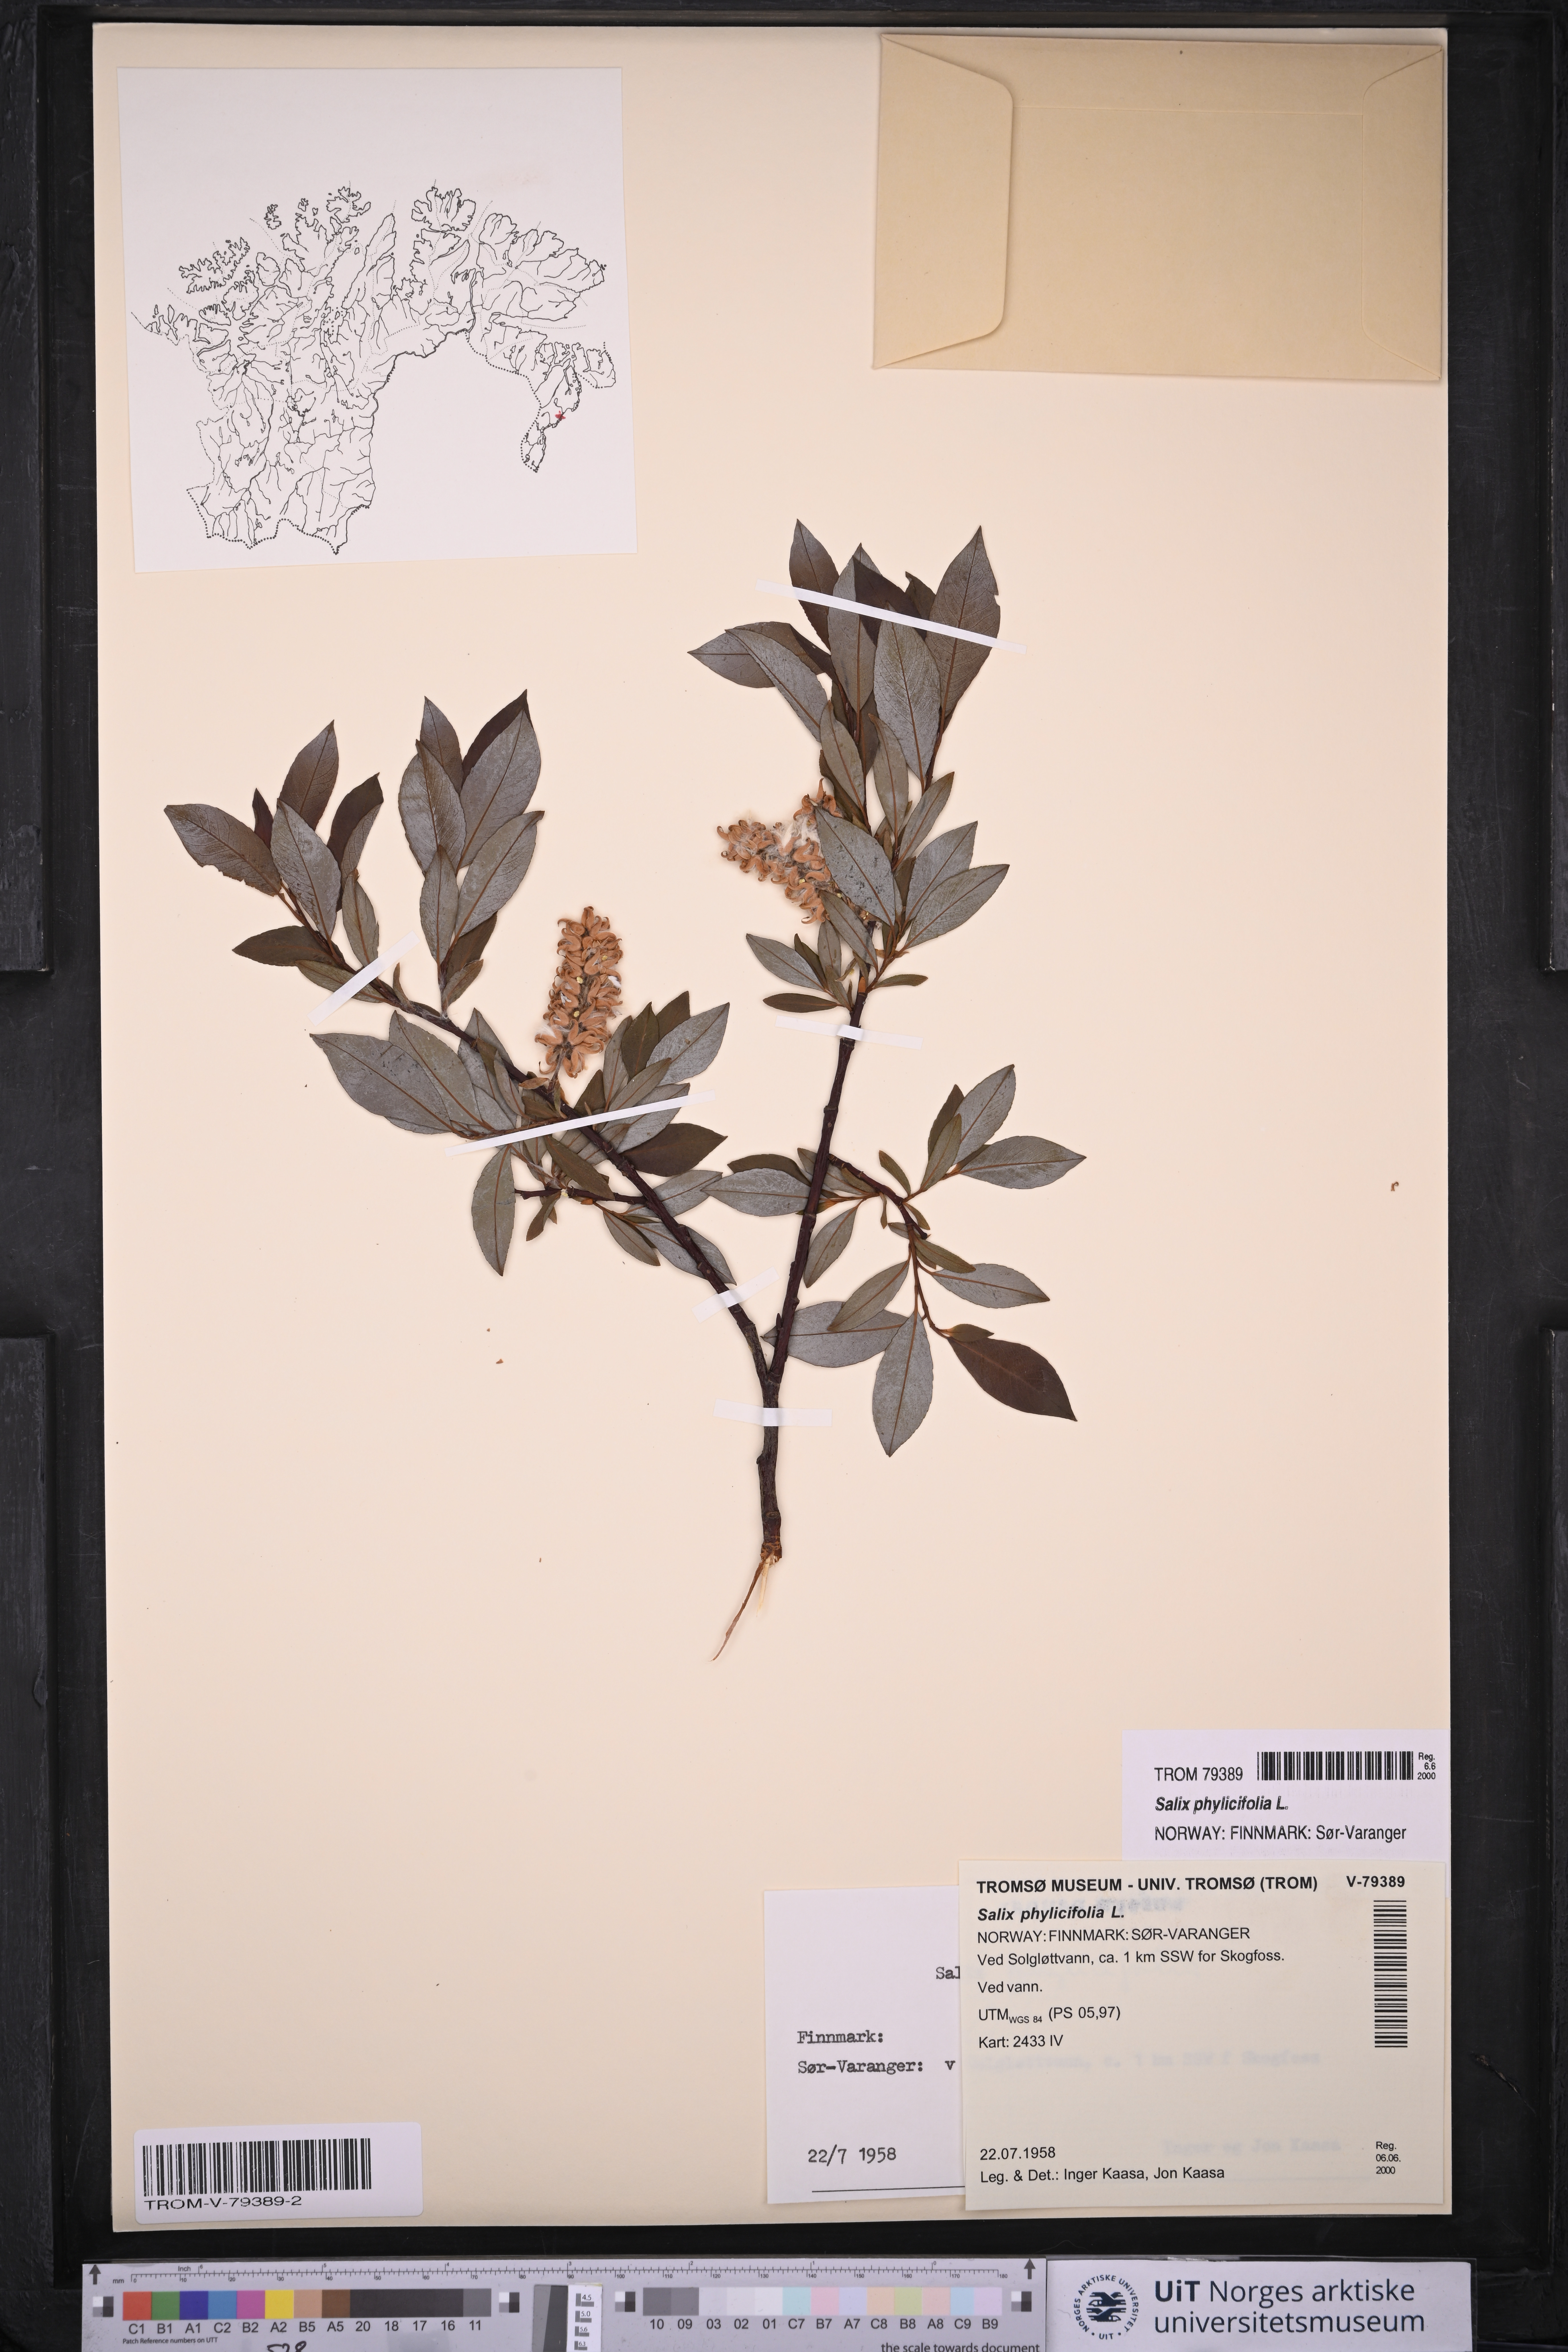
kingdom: Plantae
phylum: Tracheophyta
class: Magnoliopsida
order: Malpighiales
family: Salicaceae
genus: Salix
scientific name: Salix phylicifolia
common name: Tea-leaved willow
